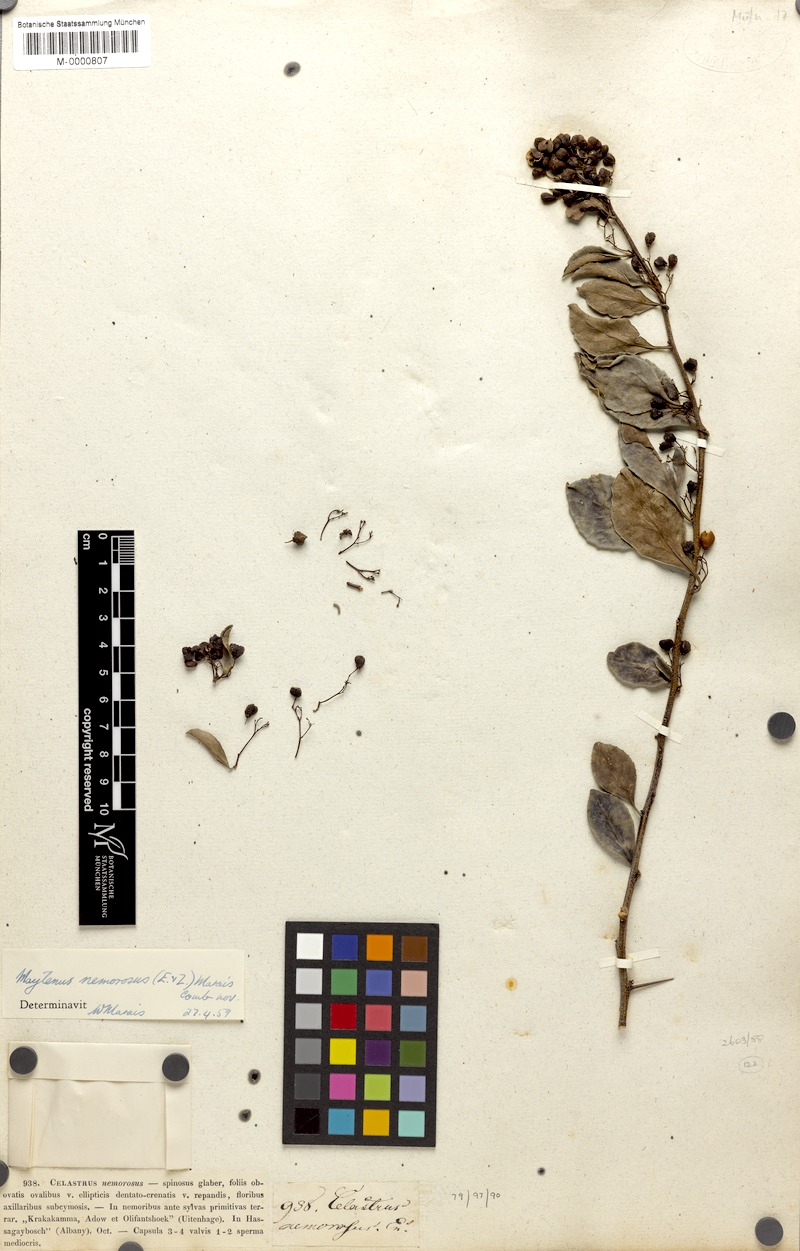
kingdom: Plantae
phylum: Tracheophyta
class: Magnoliopsida
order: Celastrales
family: Celastraceae
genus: Gymnosporia
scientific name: Gymnosporia nemorosa
